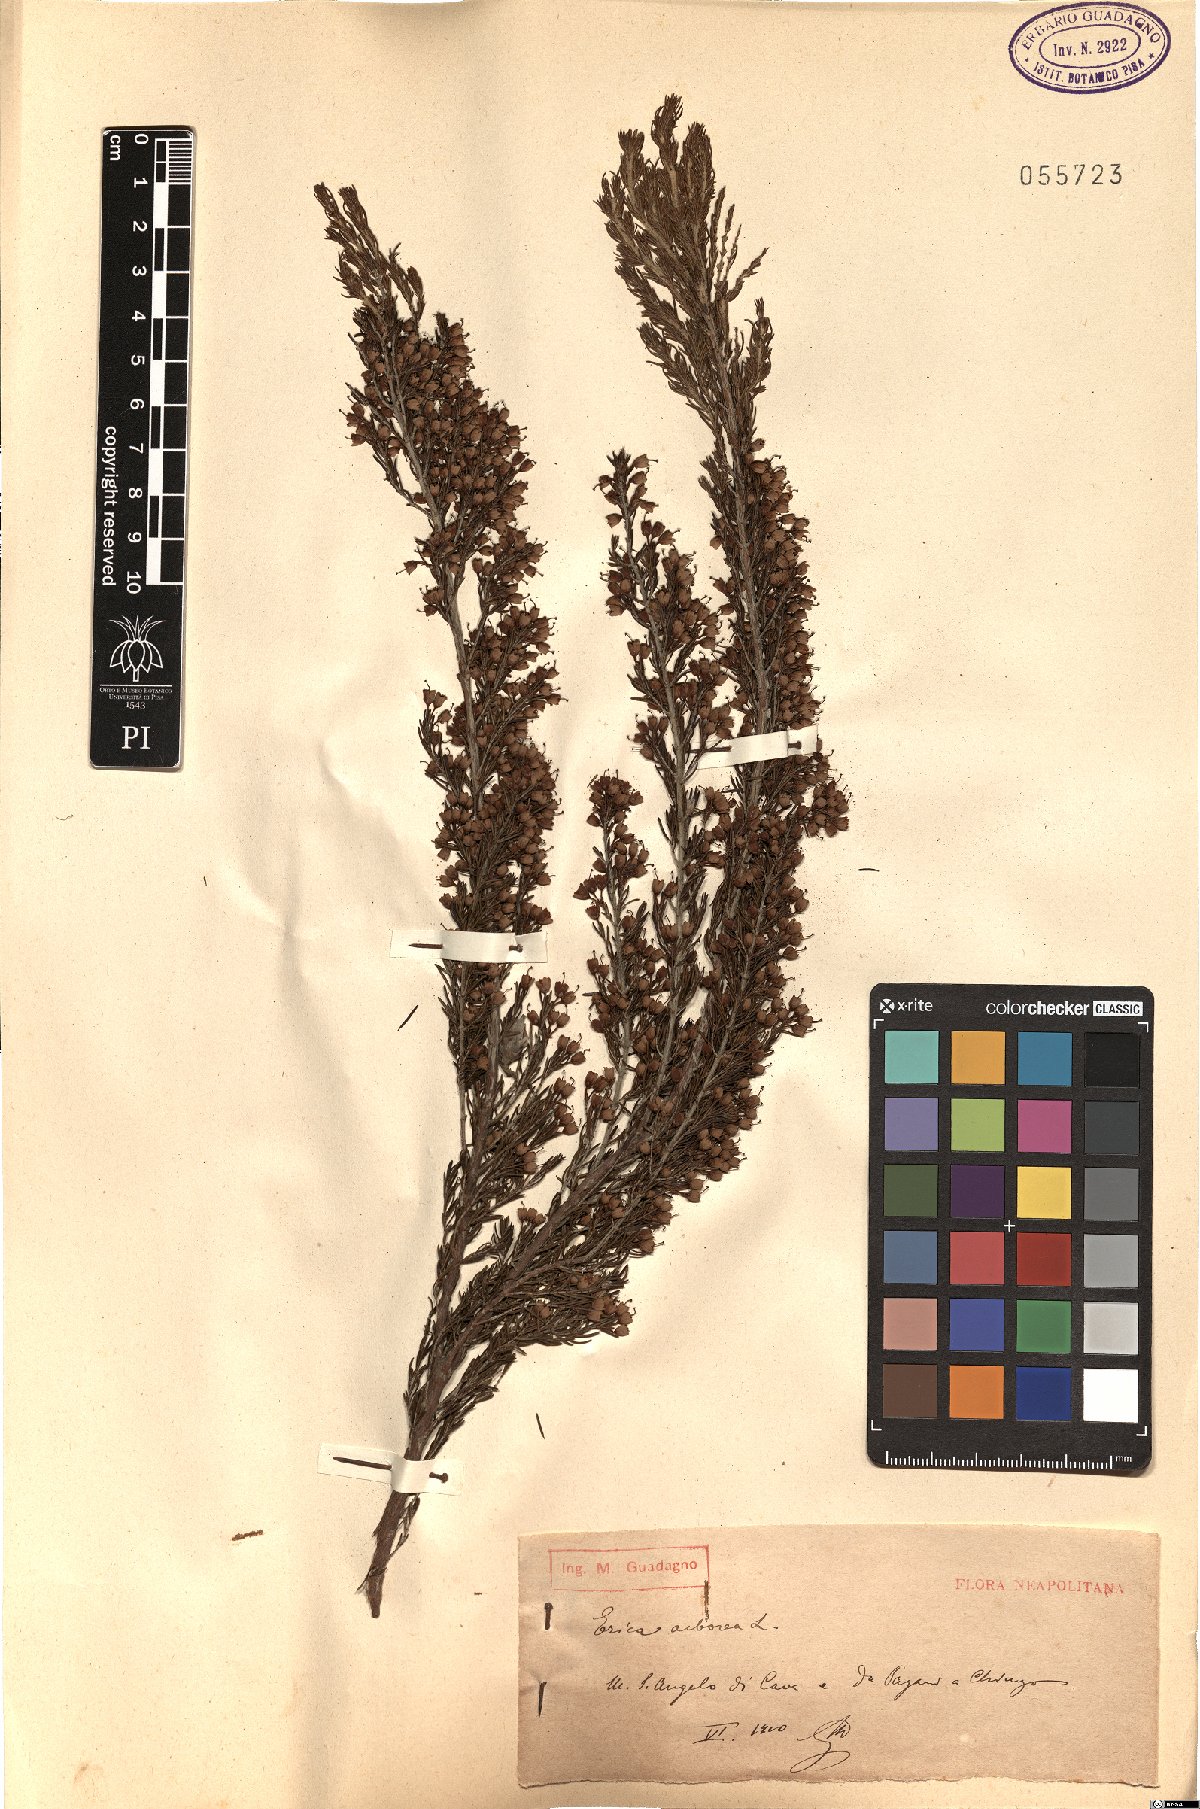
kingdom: Plantae
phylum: Tracheophyta
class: Magnoliopsida
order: Ericales
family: Ericaceae
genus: Erica
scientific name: Erica arborea
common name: Tree heath
